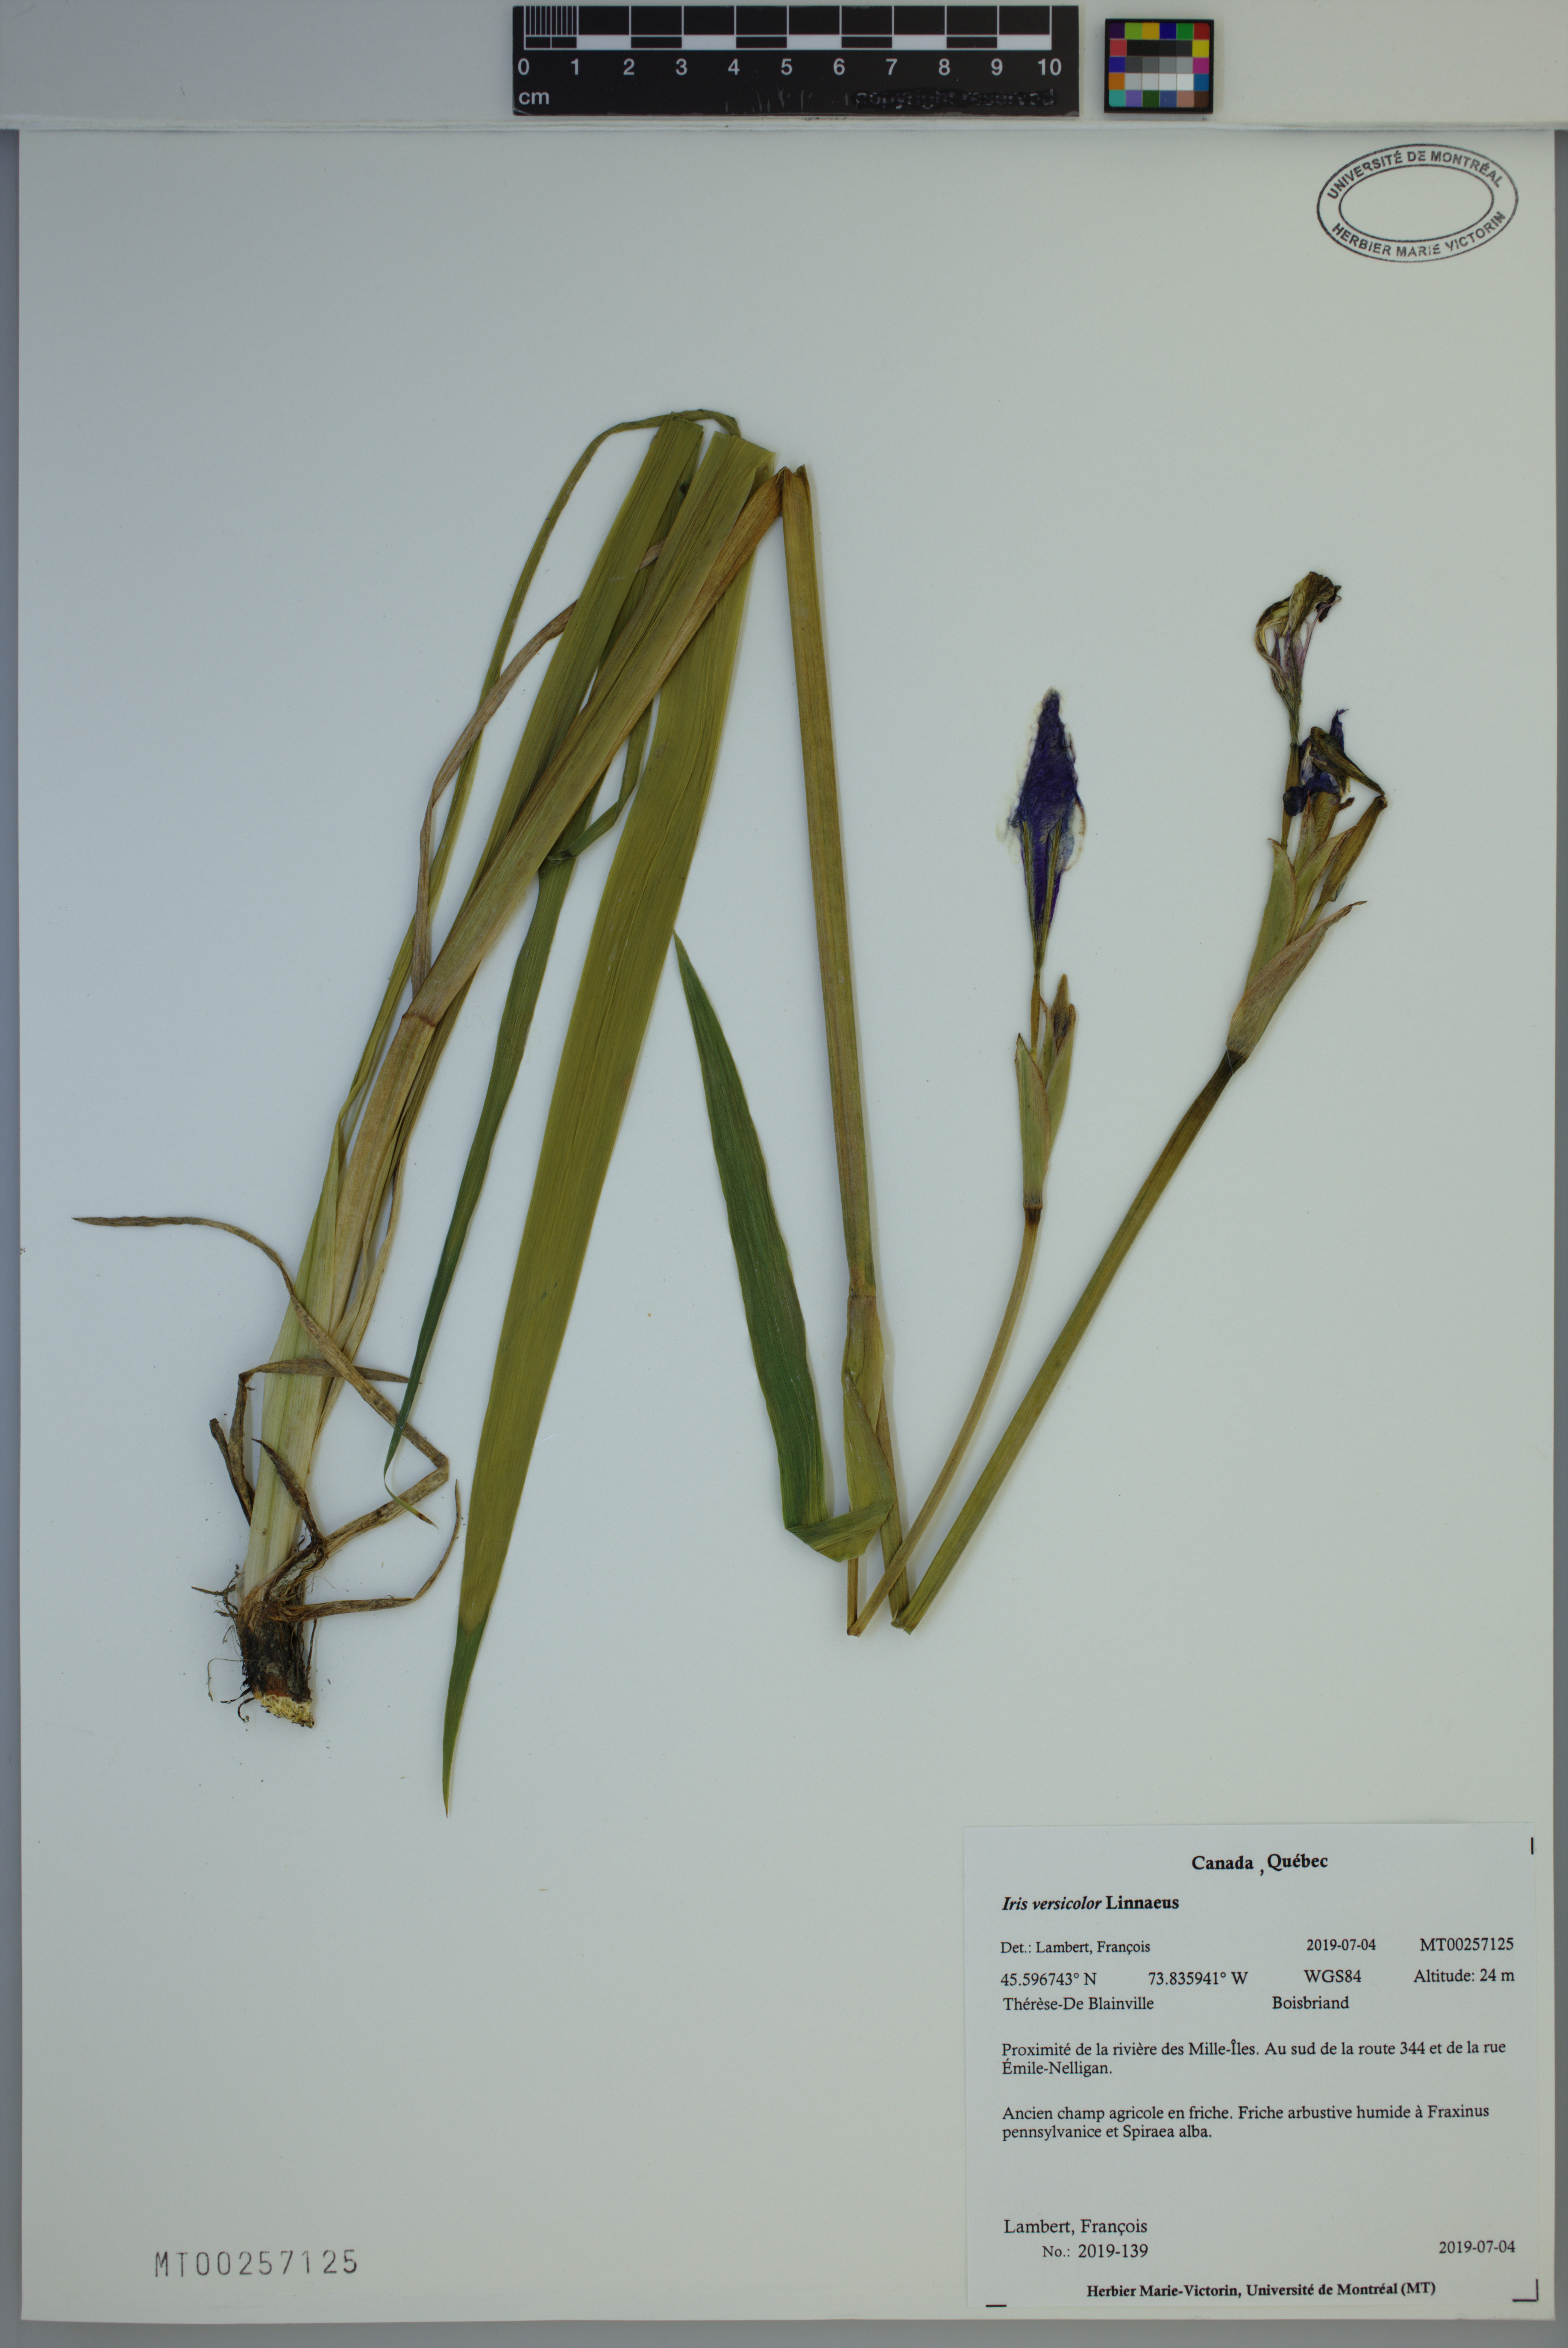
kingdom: Plantae
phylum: Tracheophyta
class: Liliopsida
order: Asparagales
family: Iridaceae
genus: Iris
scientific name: Iris versicolor
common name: Purple iris
